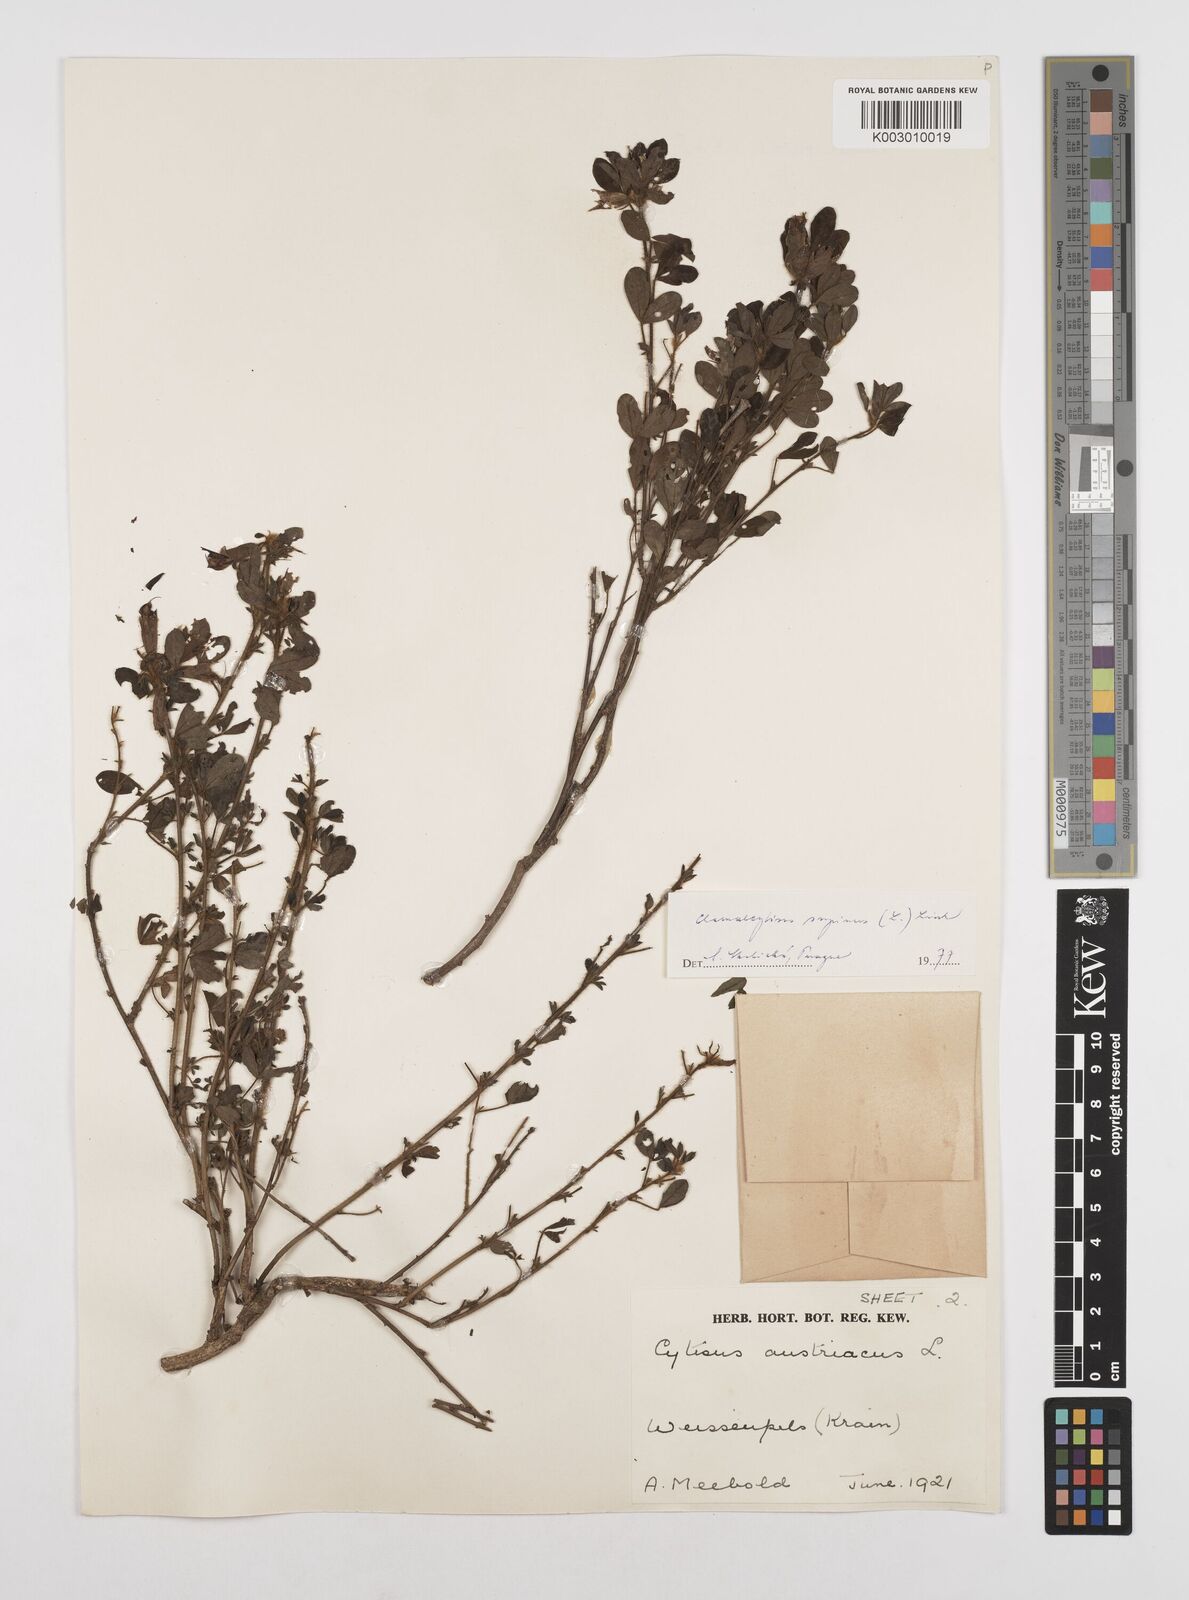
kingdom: Plantae
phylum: Tracheophyta
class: Magnoliopsida
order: Fabales
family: Fabaceae
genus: Chamaecytisus
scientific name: Chamaecytisus hirsutus
